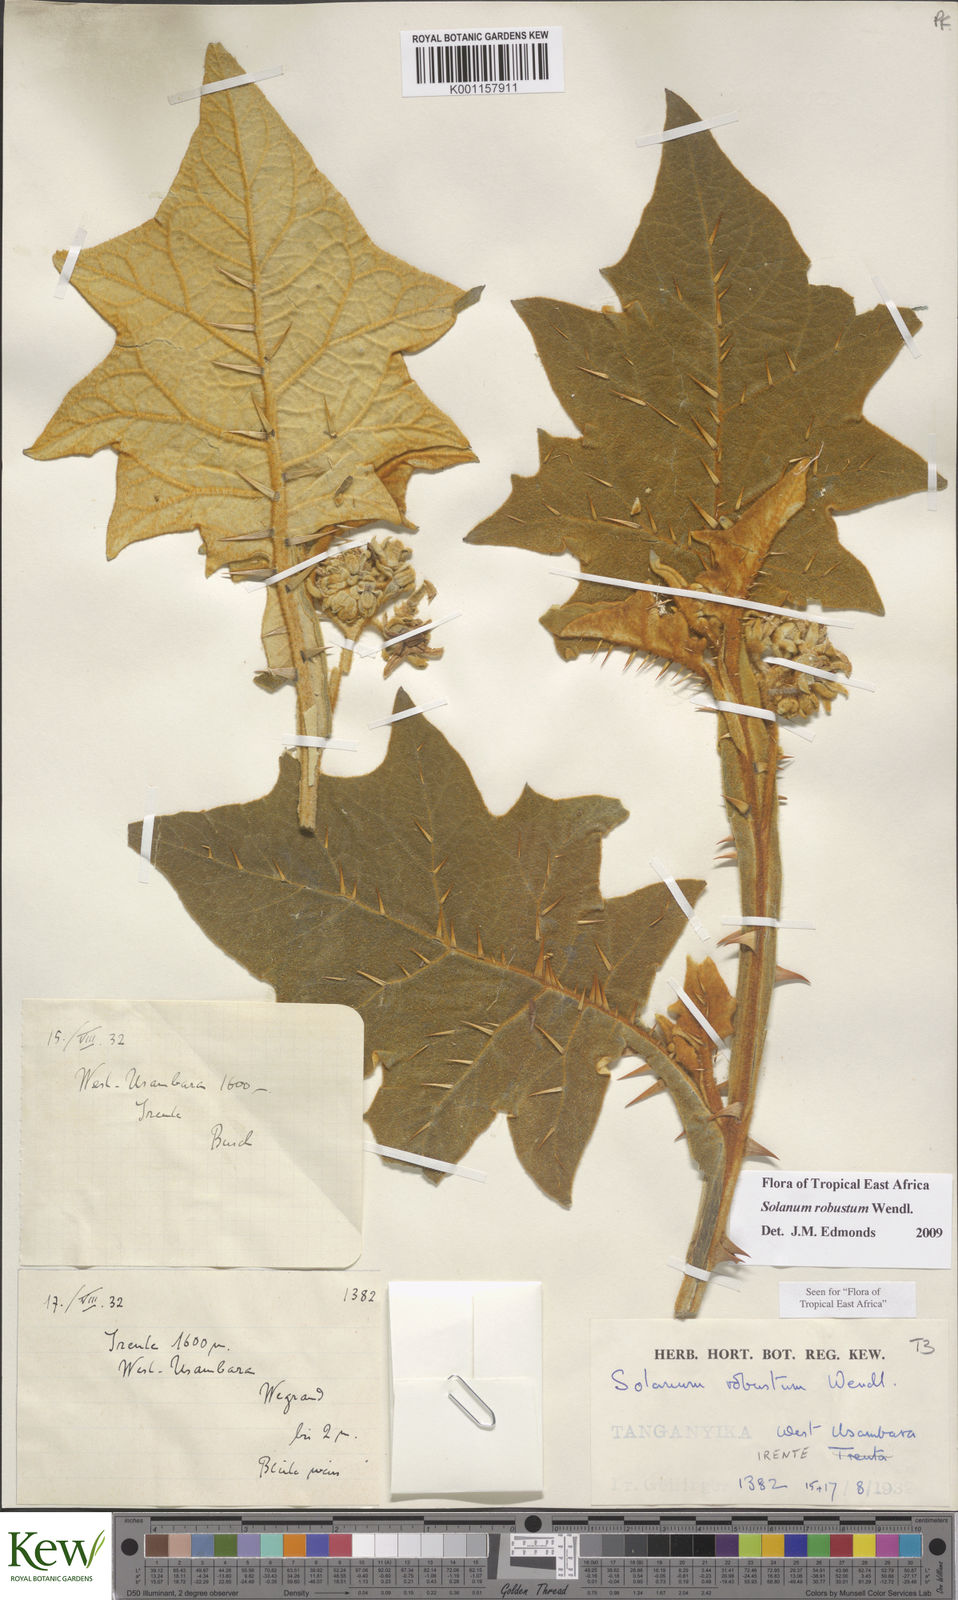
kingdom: Plantae
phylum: Tracheophyta
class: Magnoliopsida
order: Solanales
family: Solanaceae
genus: Solanum
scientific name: Solanum robustum
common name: Shrubby nightshade
